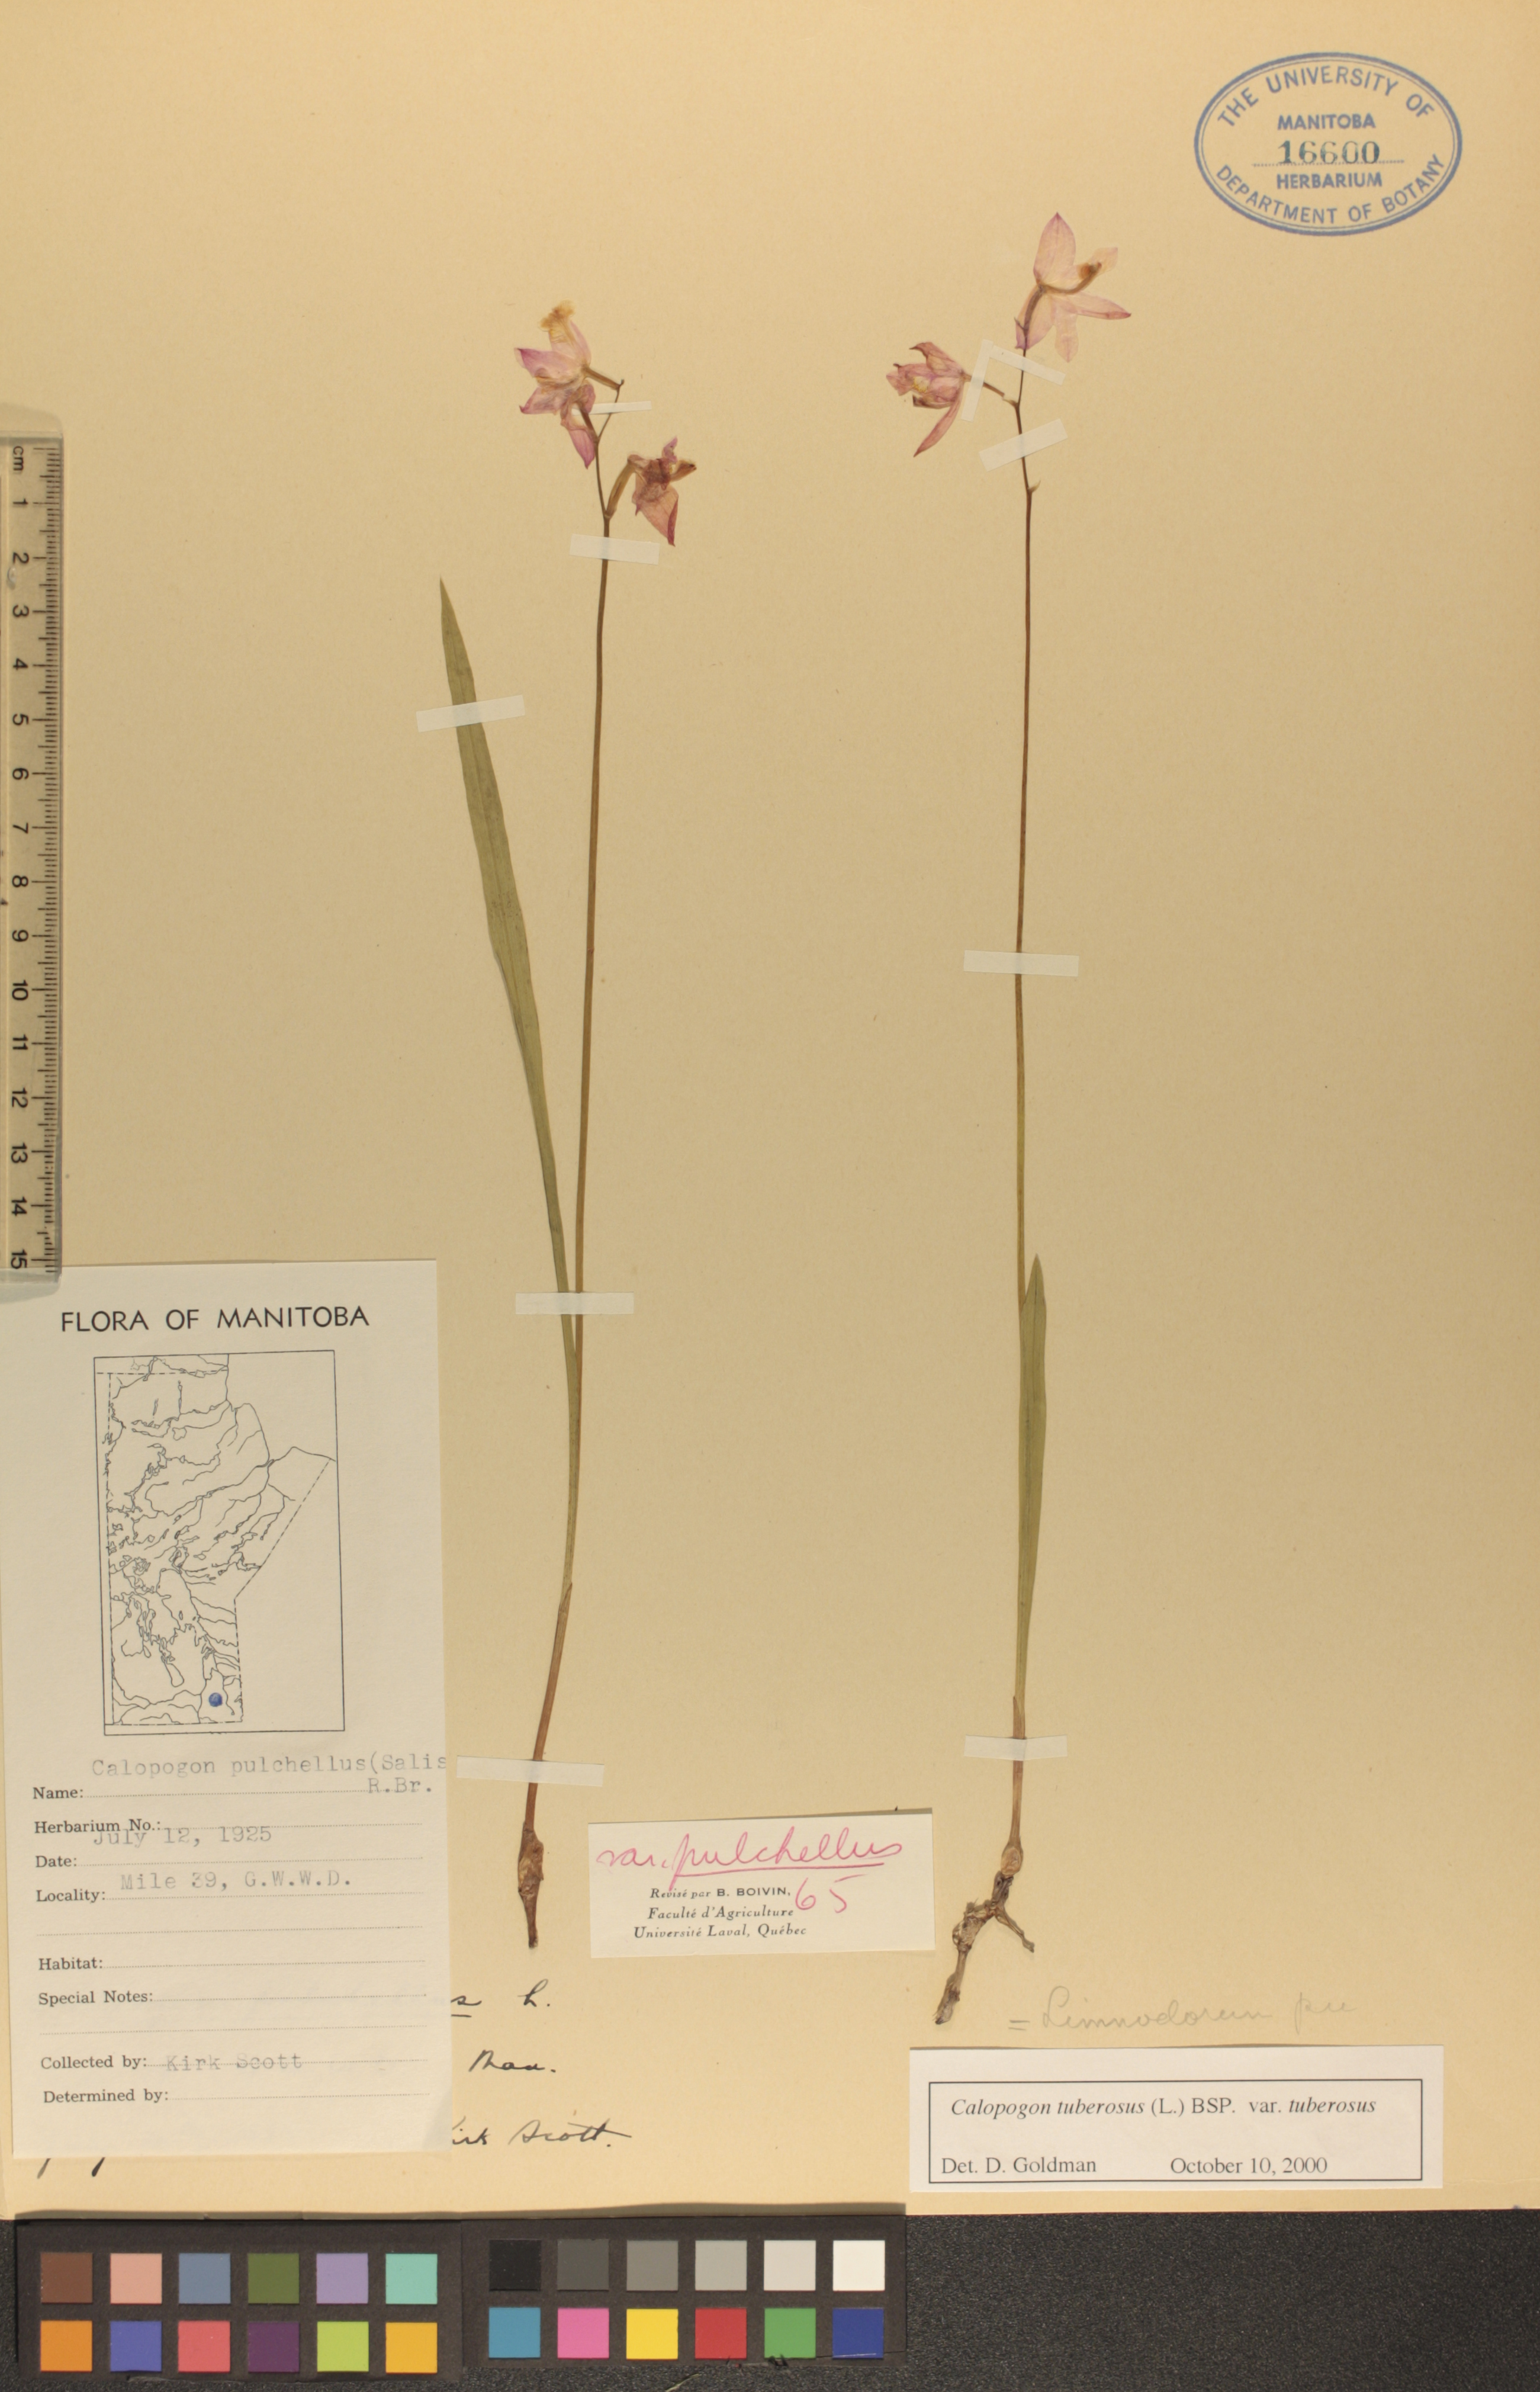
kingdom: Plantae
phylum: Tracheophyta
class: Liliopsida
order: Asparagales
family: Orchidaceae
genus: Calopogon
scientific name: Calopogon tuberosus
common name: Grass-pink
